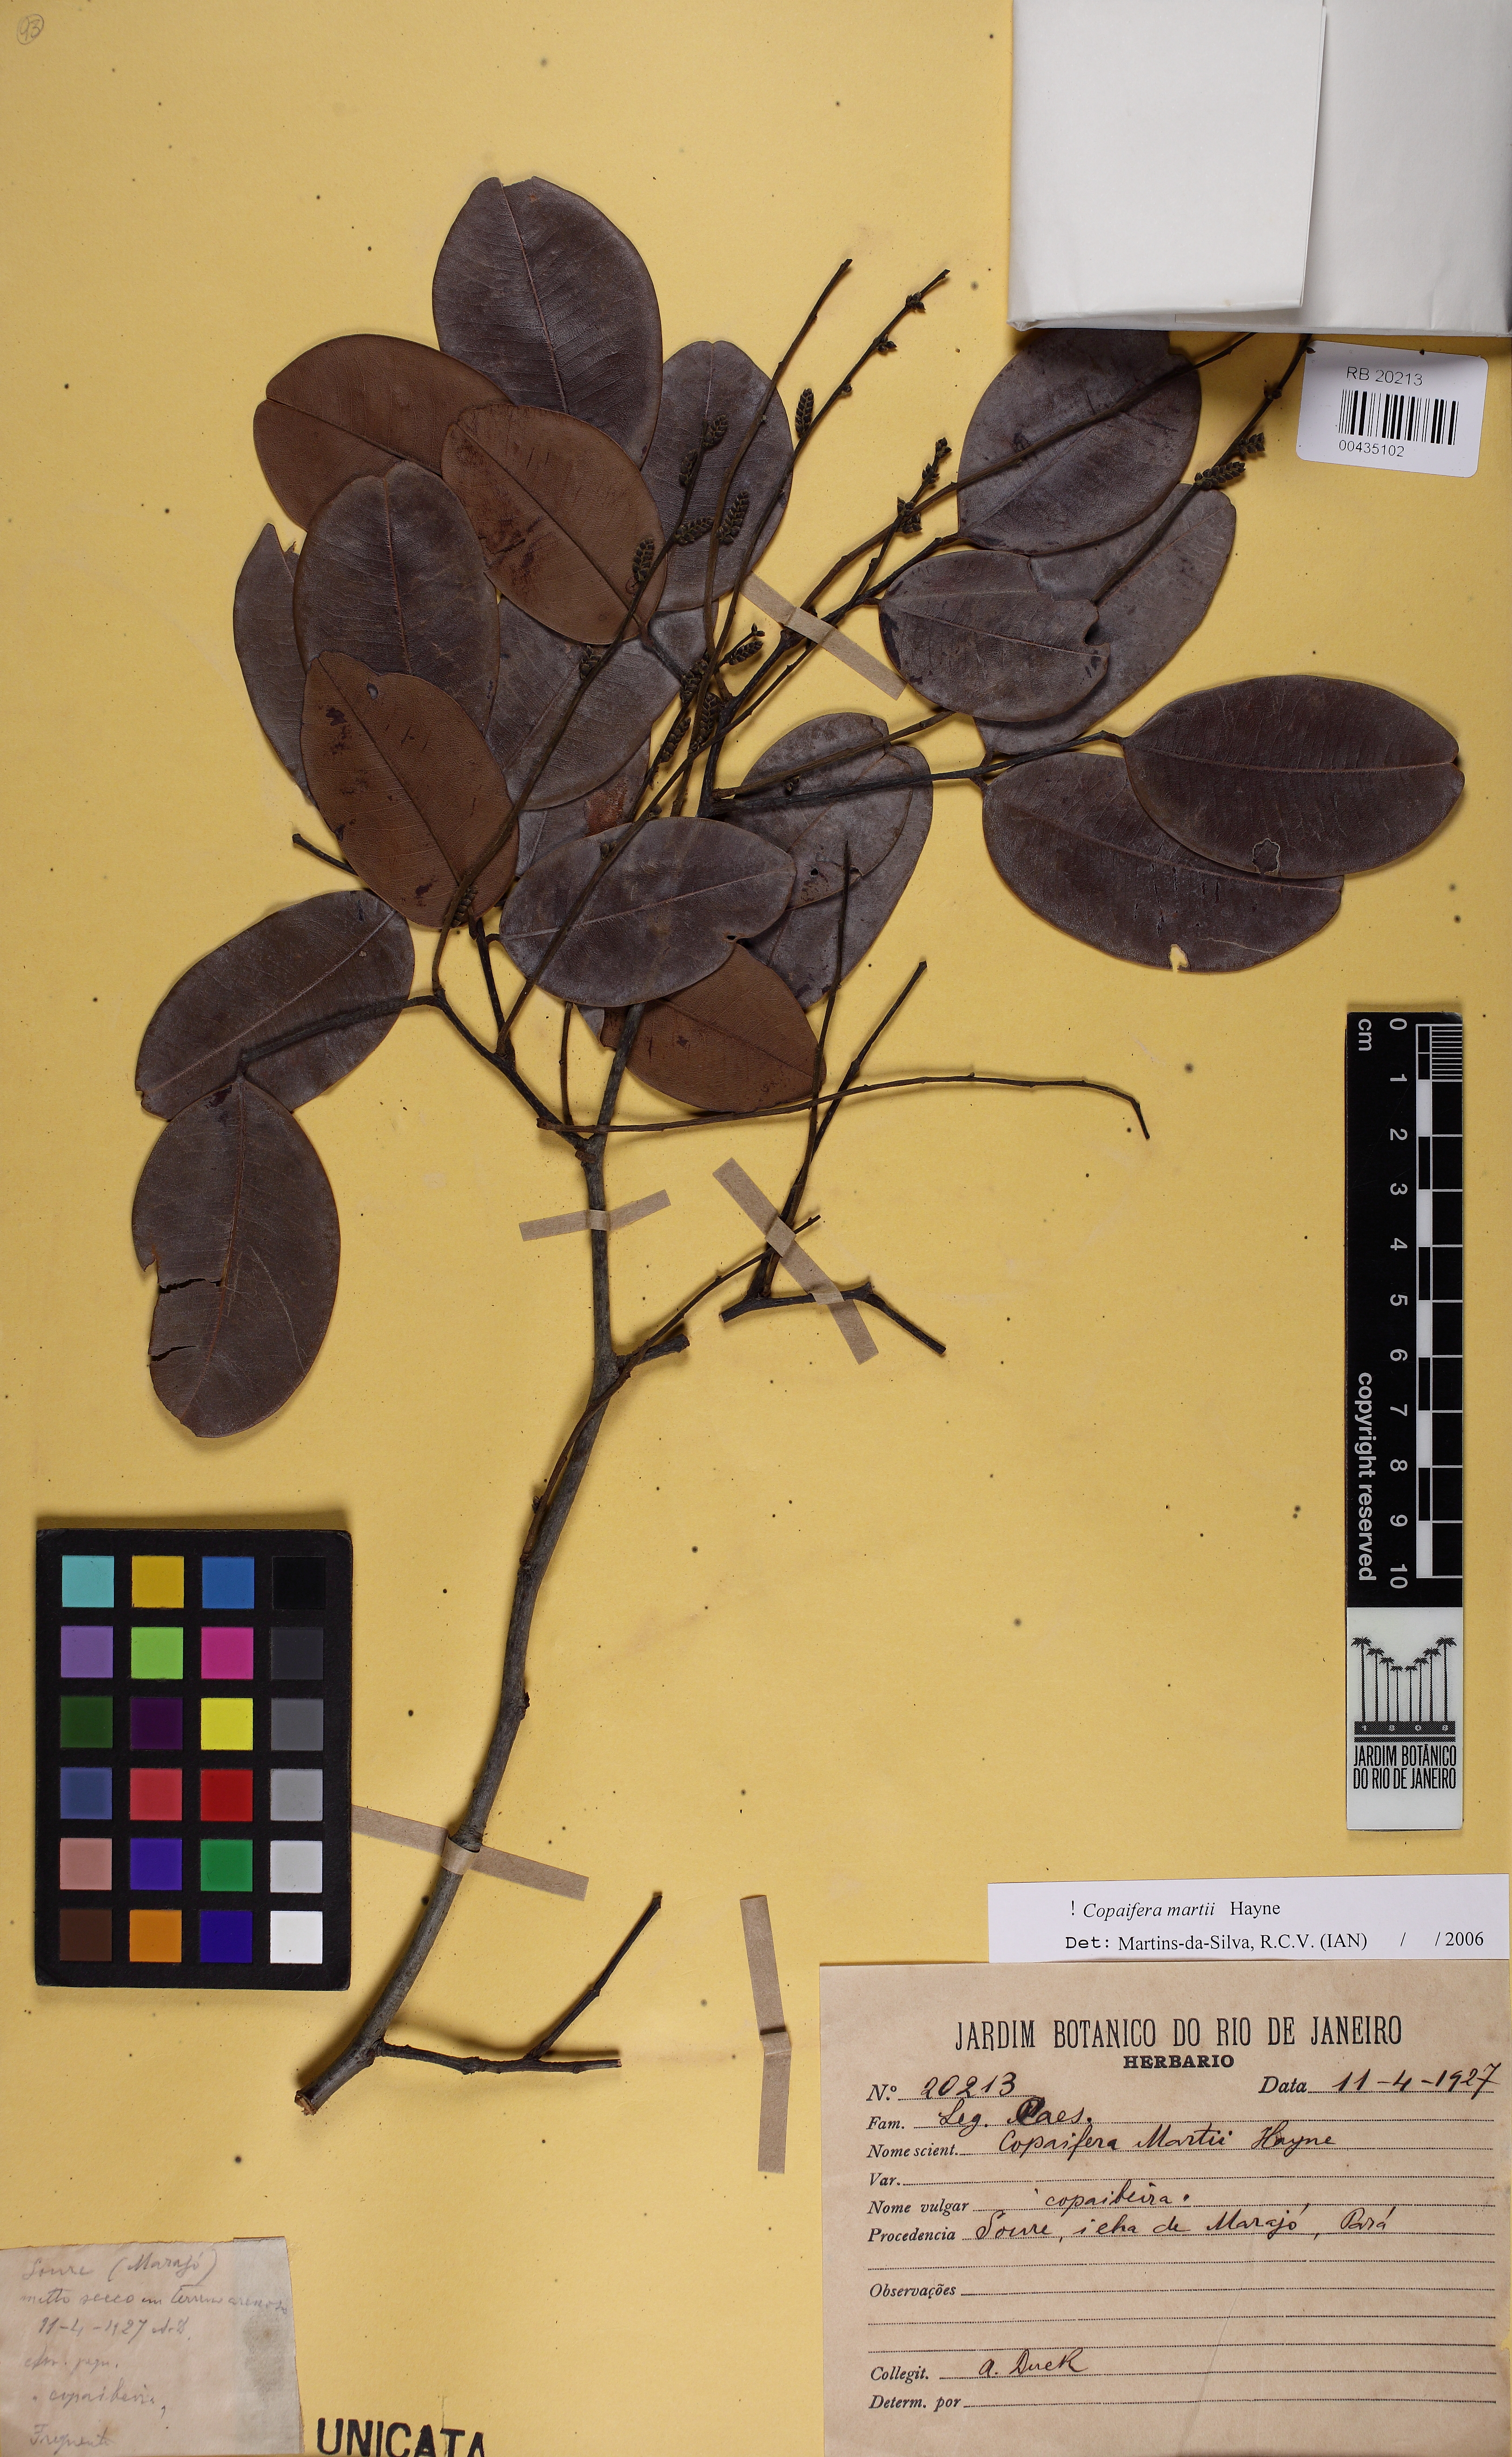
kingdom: Plantae
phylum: Tracheophyta
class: Magnoliopsida
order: Fabales
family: Fabaceae
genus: Copaifera
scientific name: Copaifera martii
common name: Copaiba
